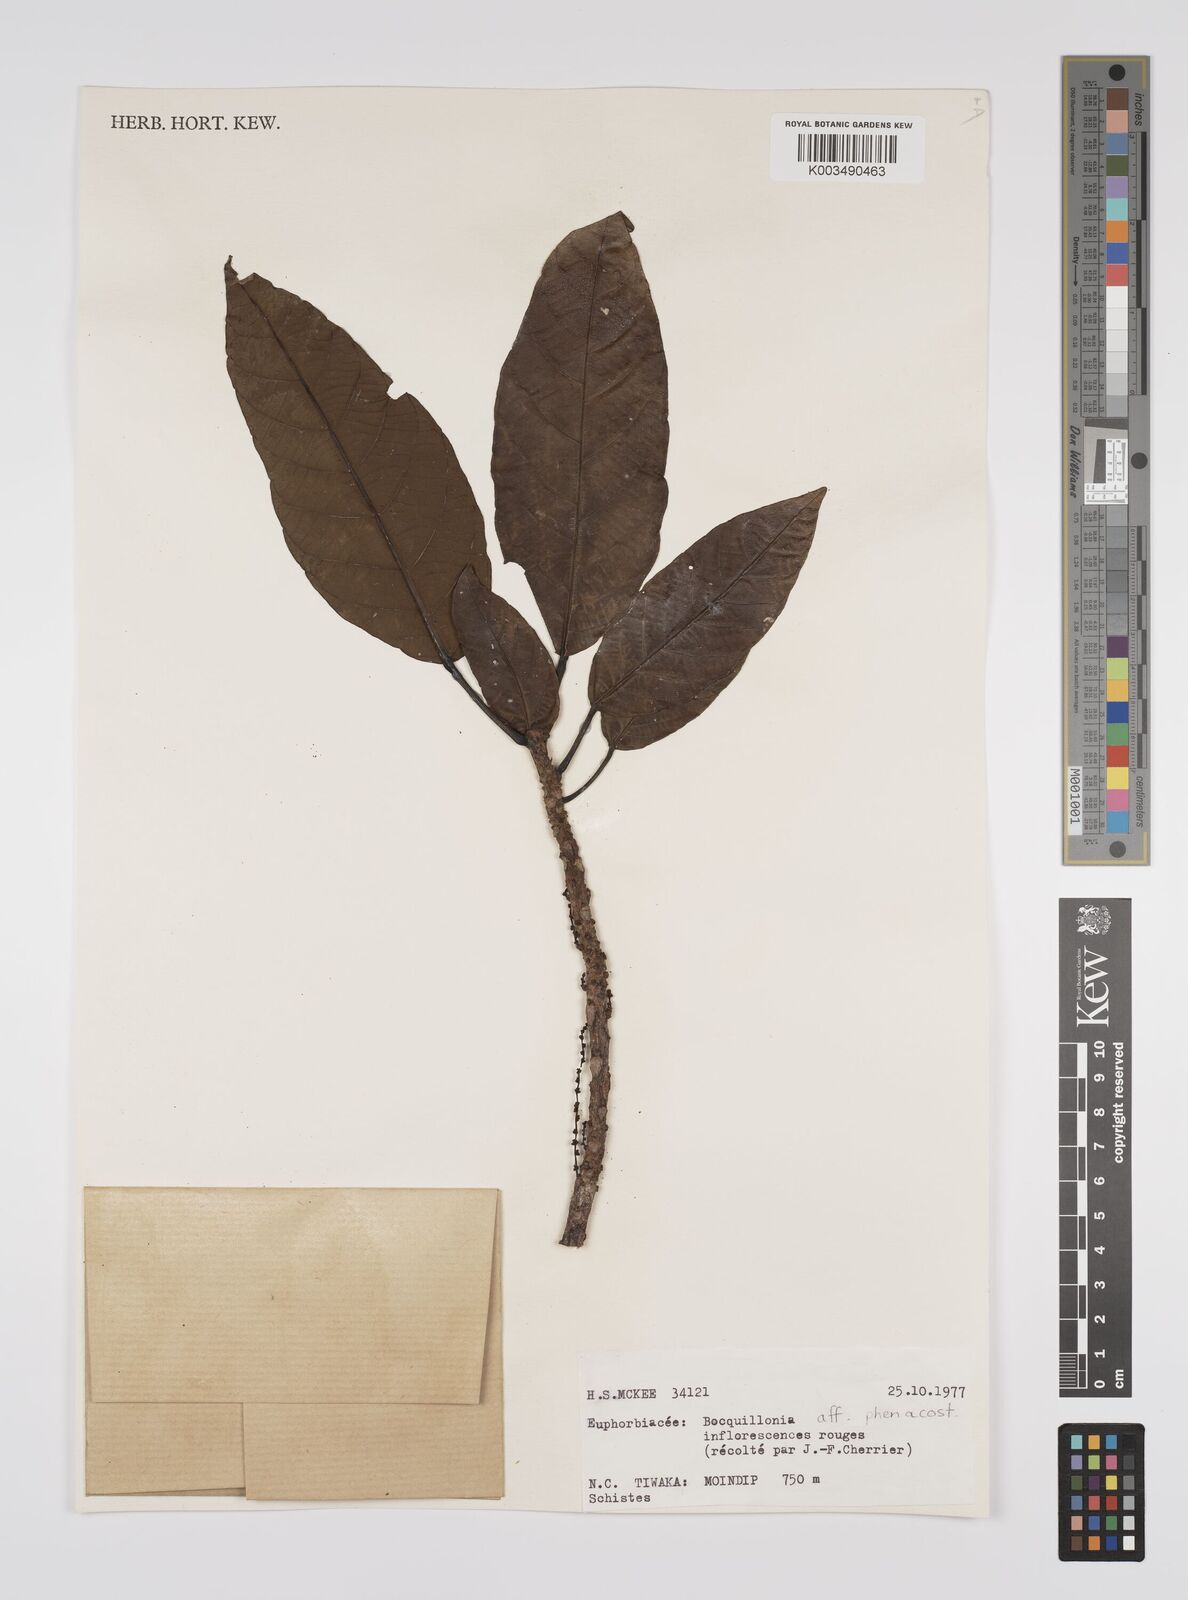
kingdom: Plantae
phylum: Tracheophyta
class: Magnoliopsida
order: Malpighiales
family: Euphorbiaceae
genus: Bocquillonia
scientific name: Bocquillonia phenacostigma
